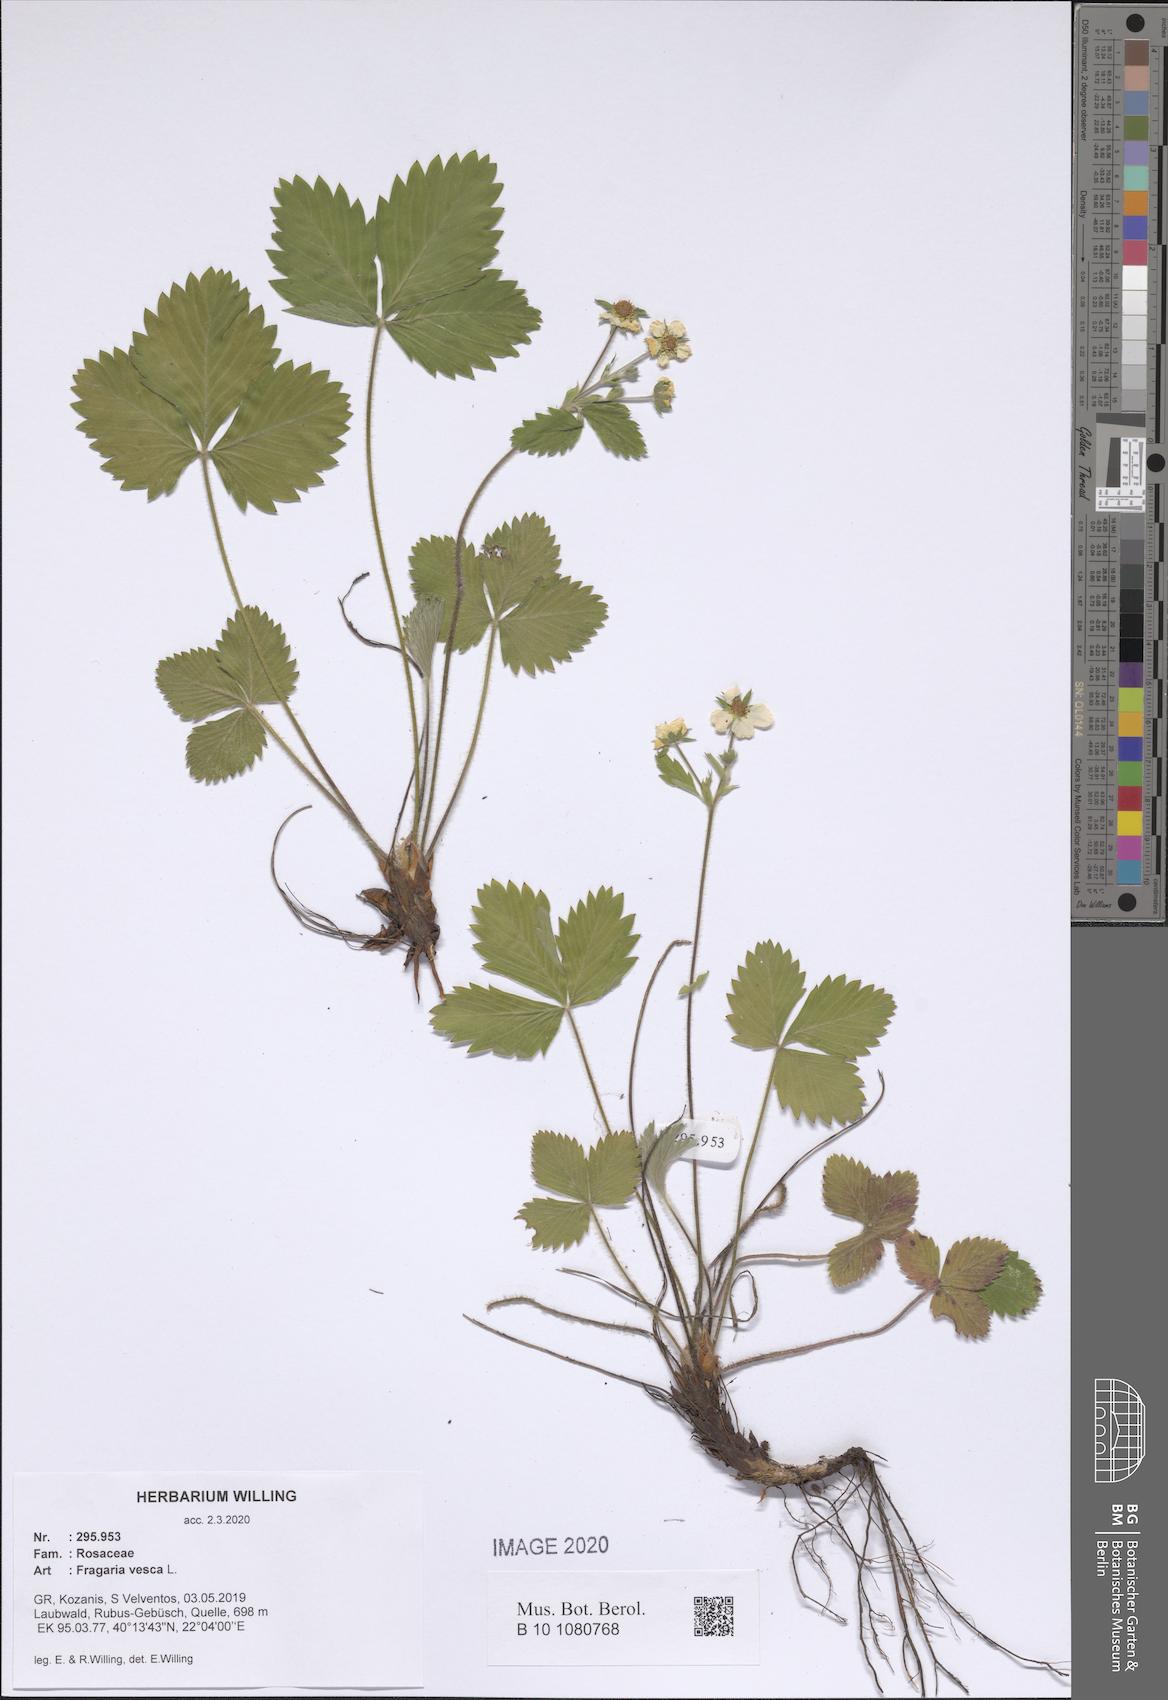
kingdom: Plantae
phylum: Tracheophyta
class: Magnoliopsida
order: Rosales
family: Rosaceae
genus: Fragaria
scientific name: Fragaria vesca
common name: Wild strawberry
